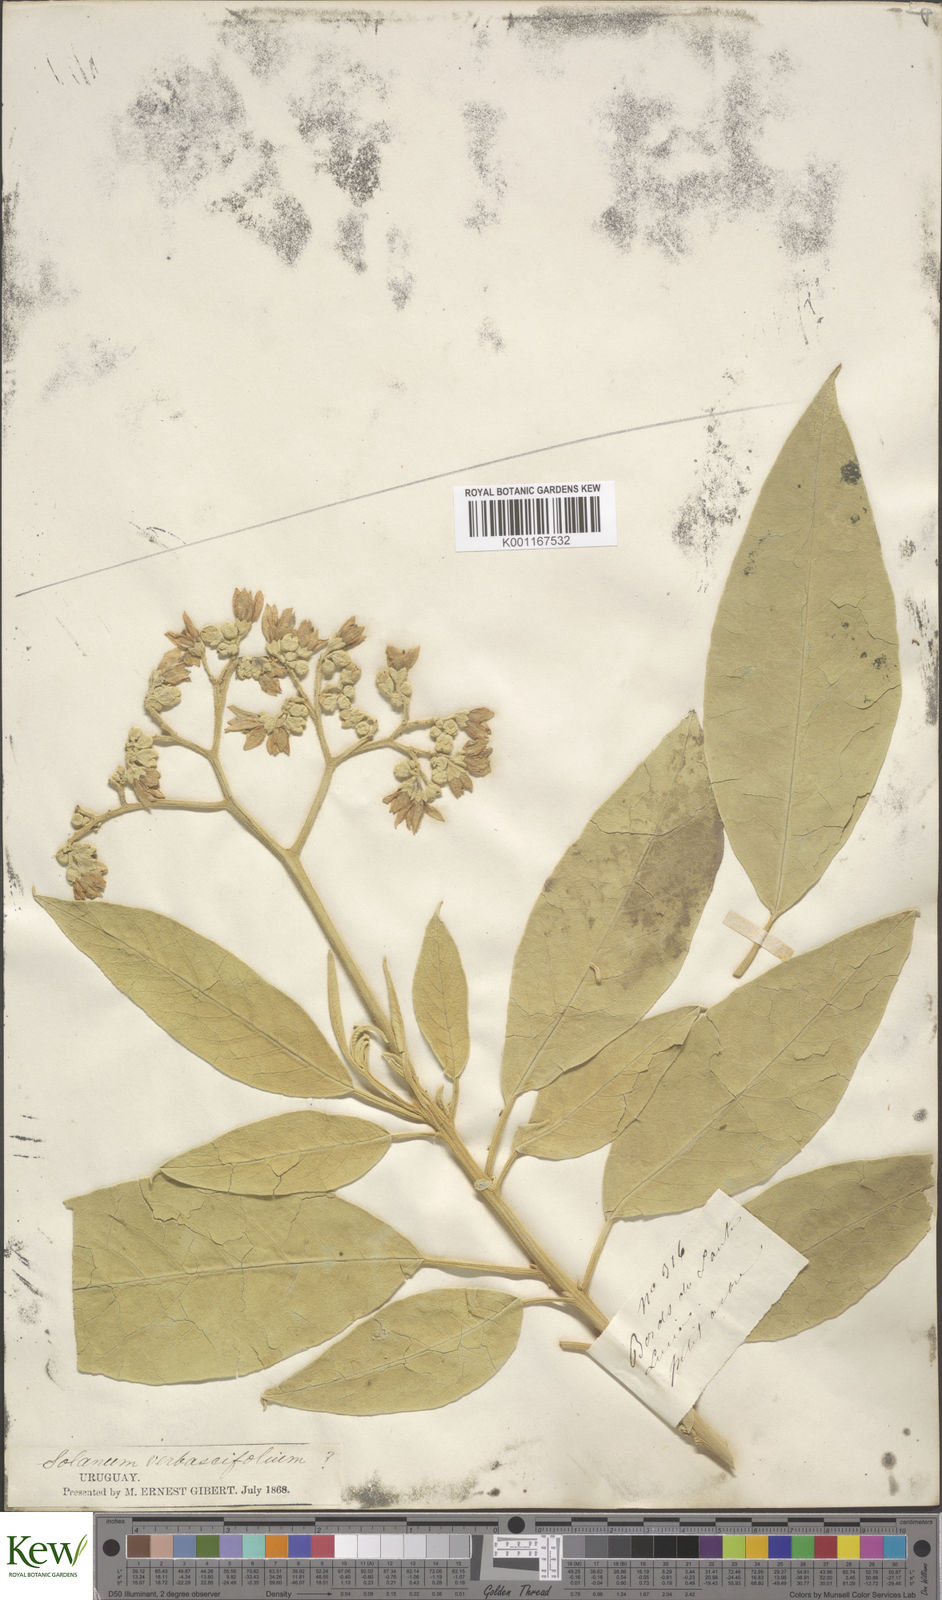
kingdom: Plantae
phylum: Tracheophyta
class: Magnoliopsida
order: Solanales
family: Solanaceae
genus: Solanum
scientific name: Solanum erianthum
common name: Tobacco-tree
